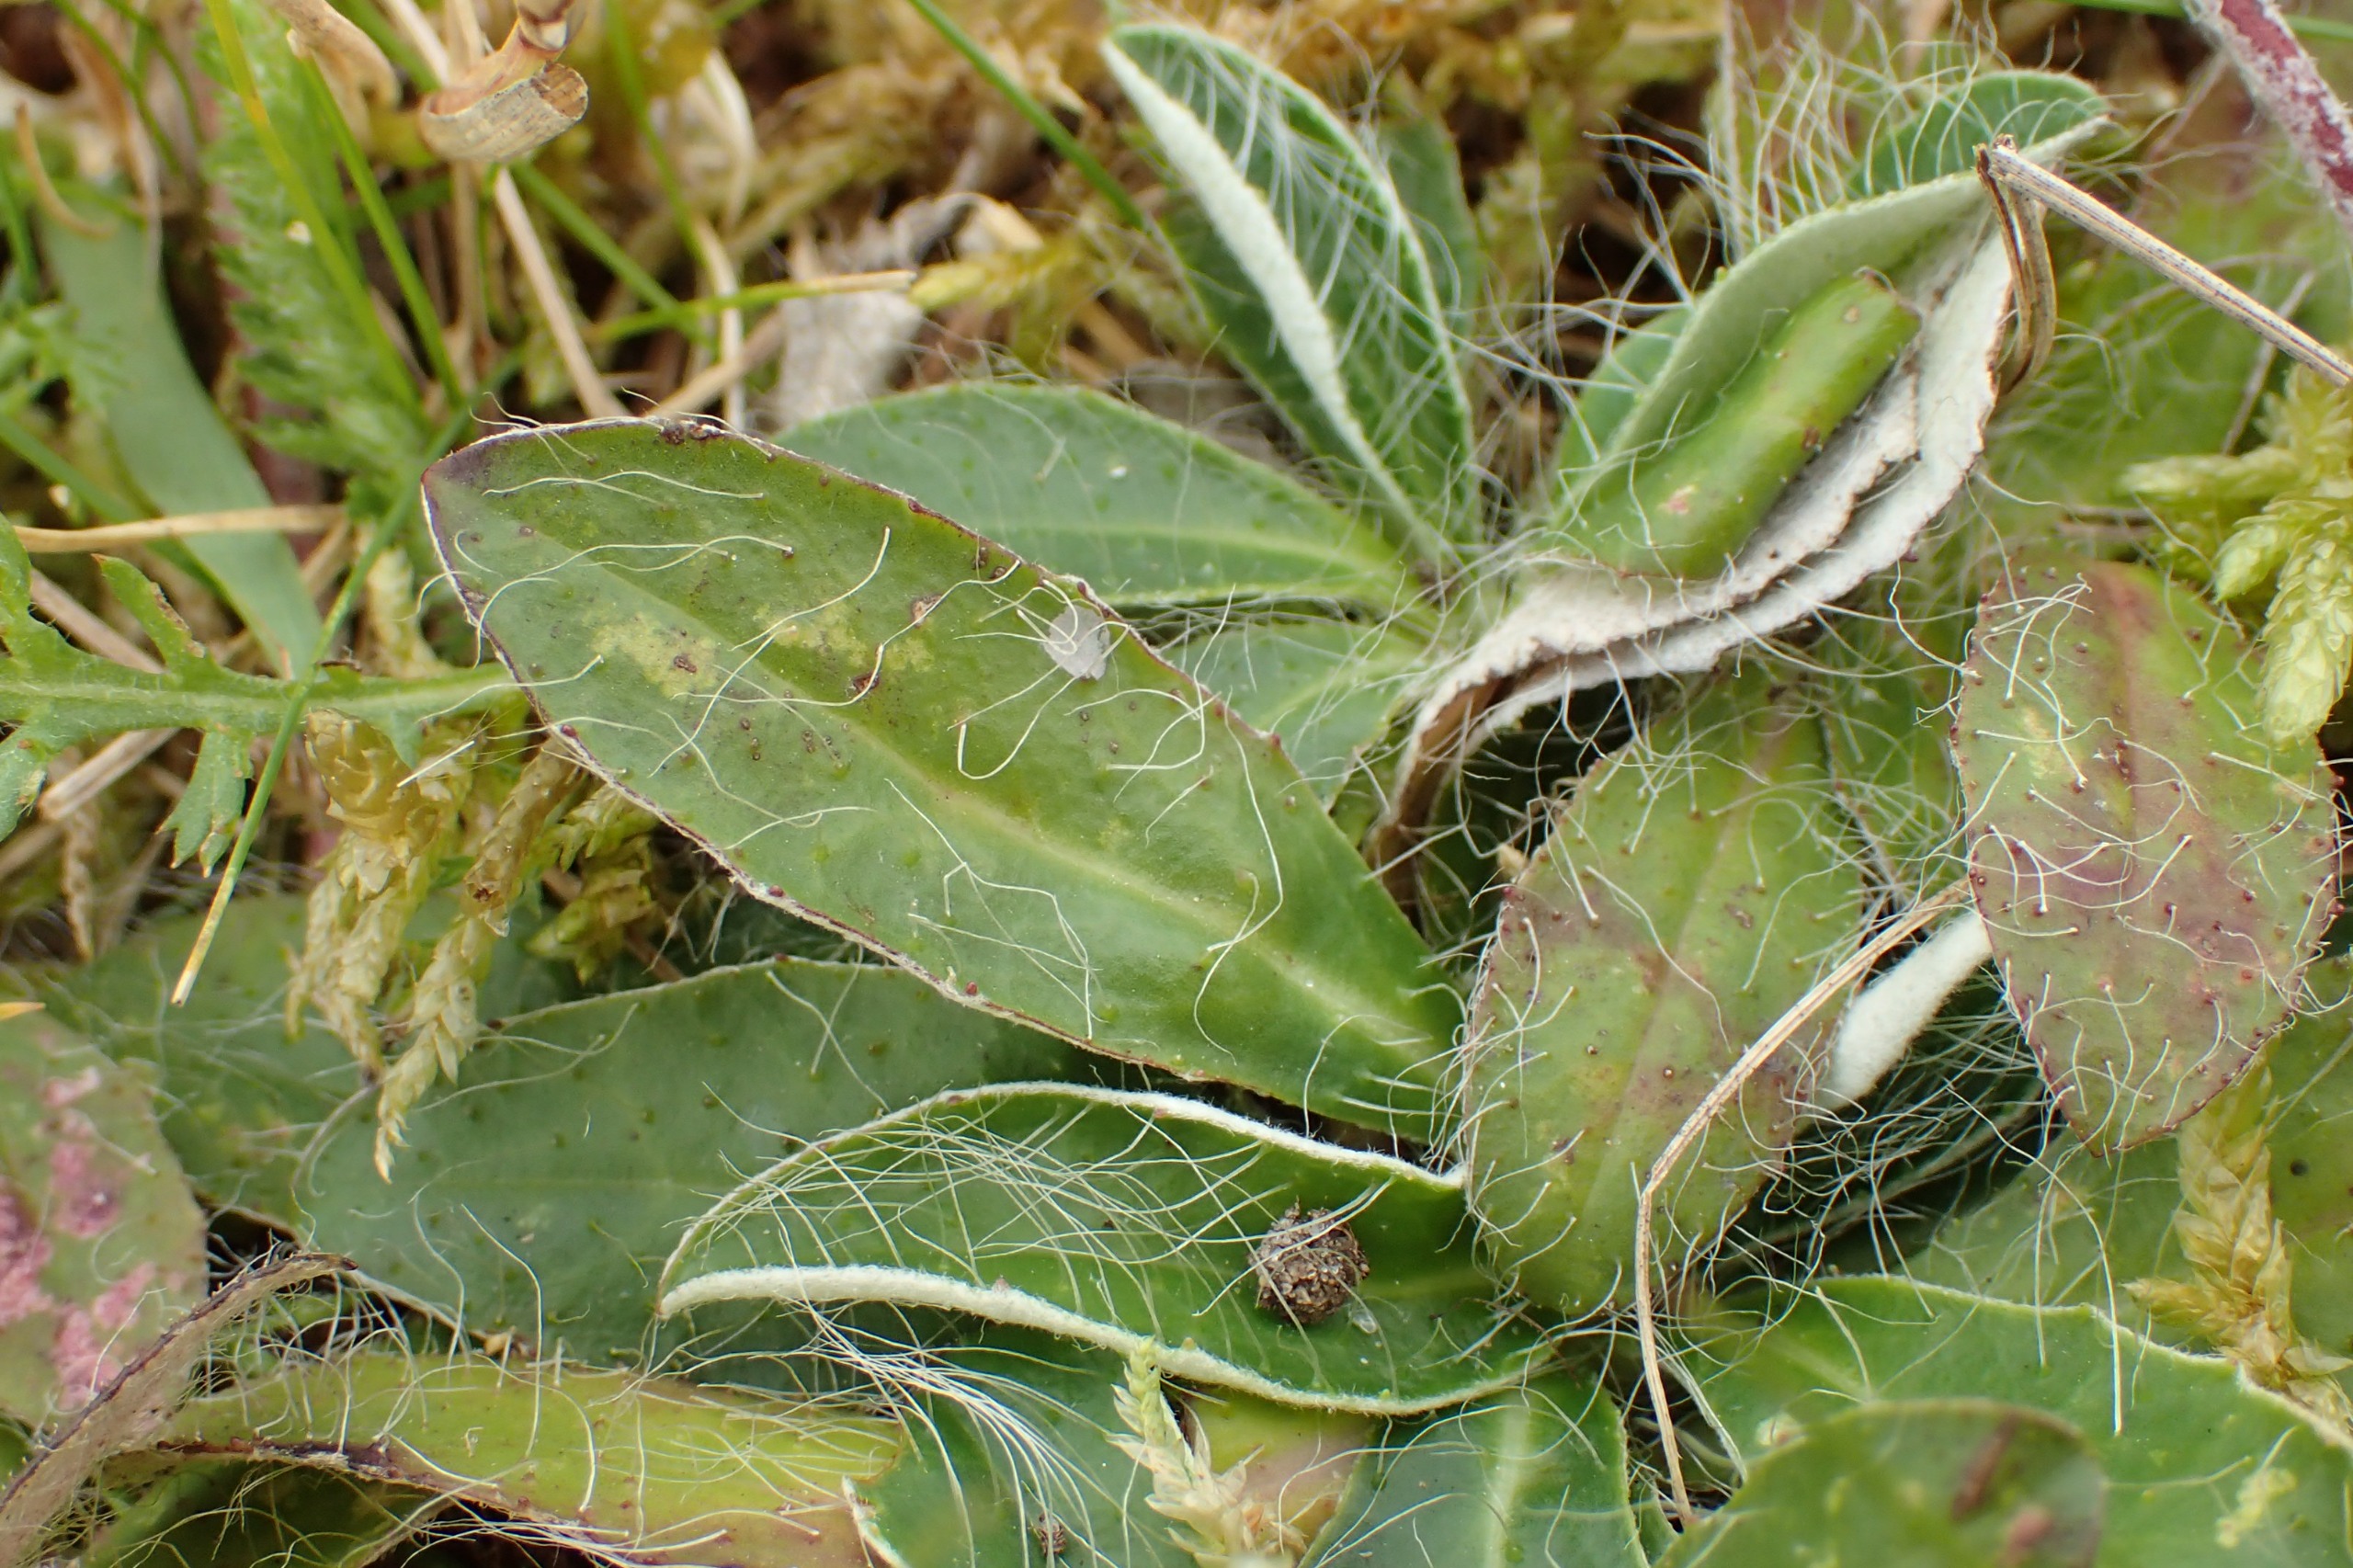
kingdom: Animalia
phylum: Arthropoda
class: Insecta
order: Hymenoptera
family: Cynipidae
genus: Aulacidea
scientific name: Aulacidea pilosellae
